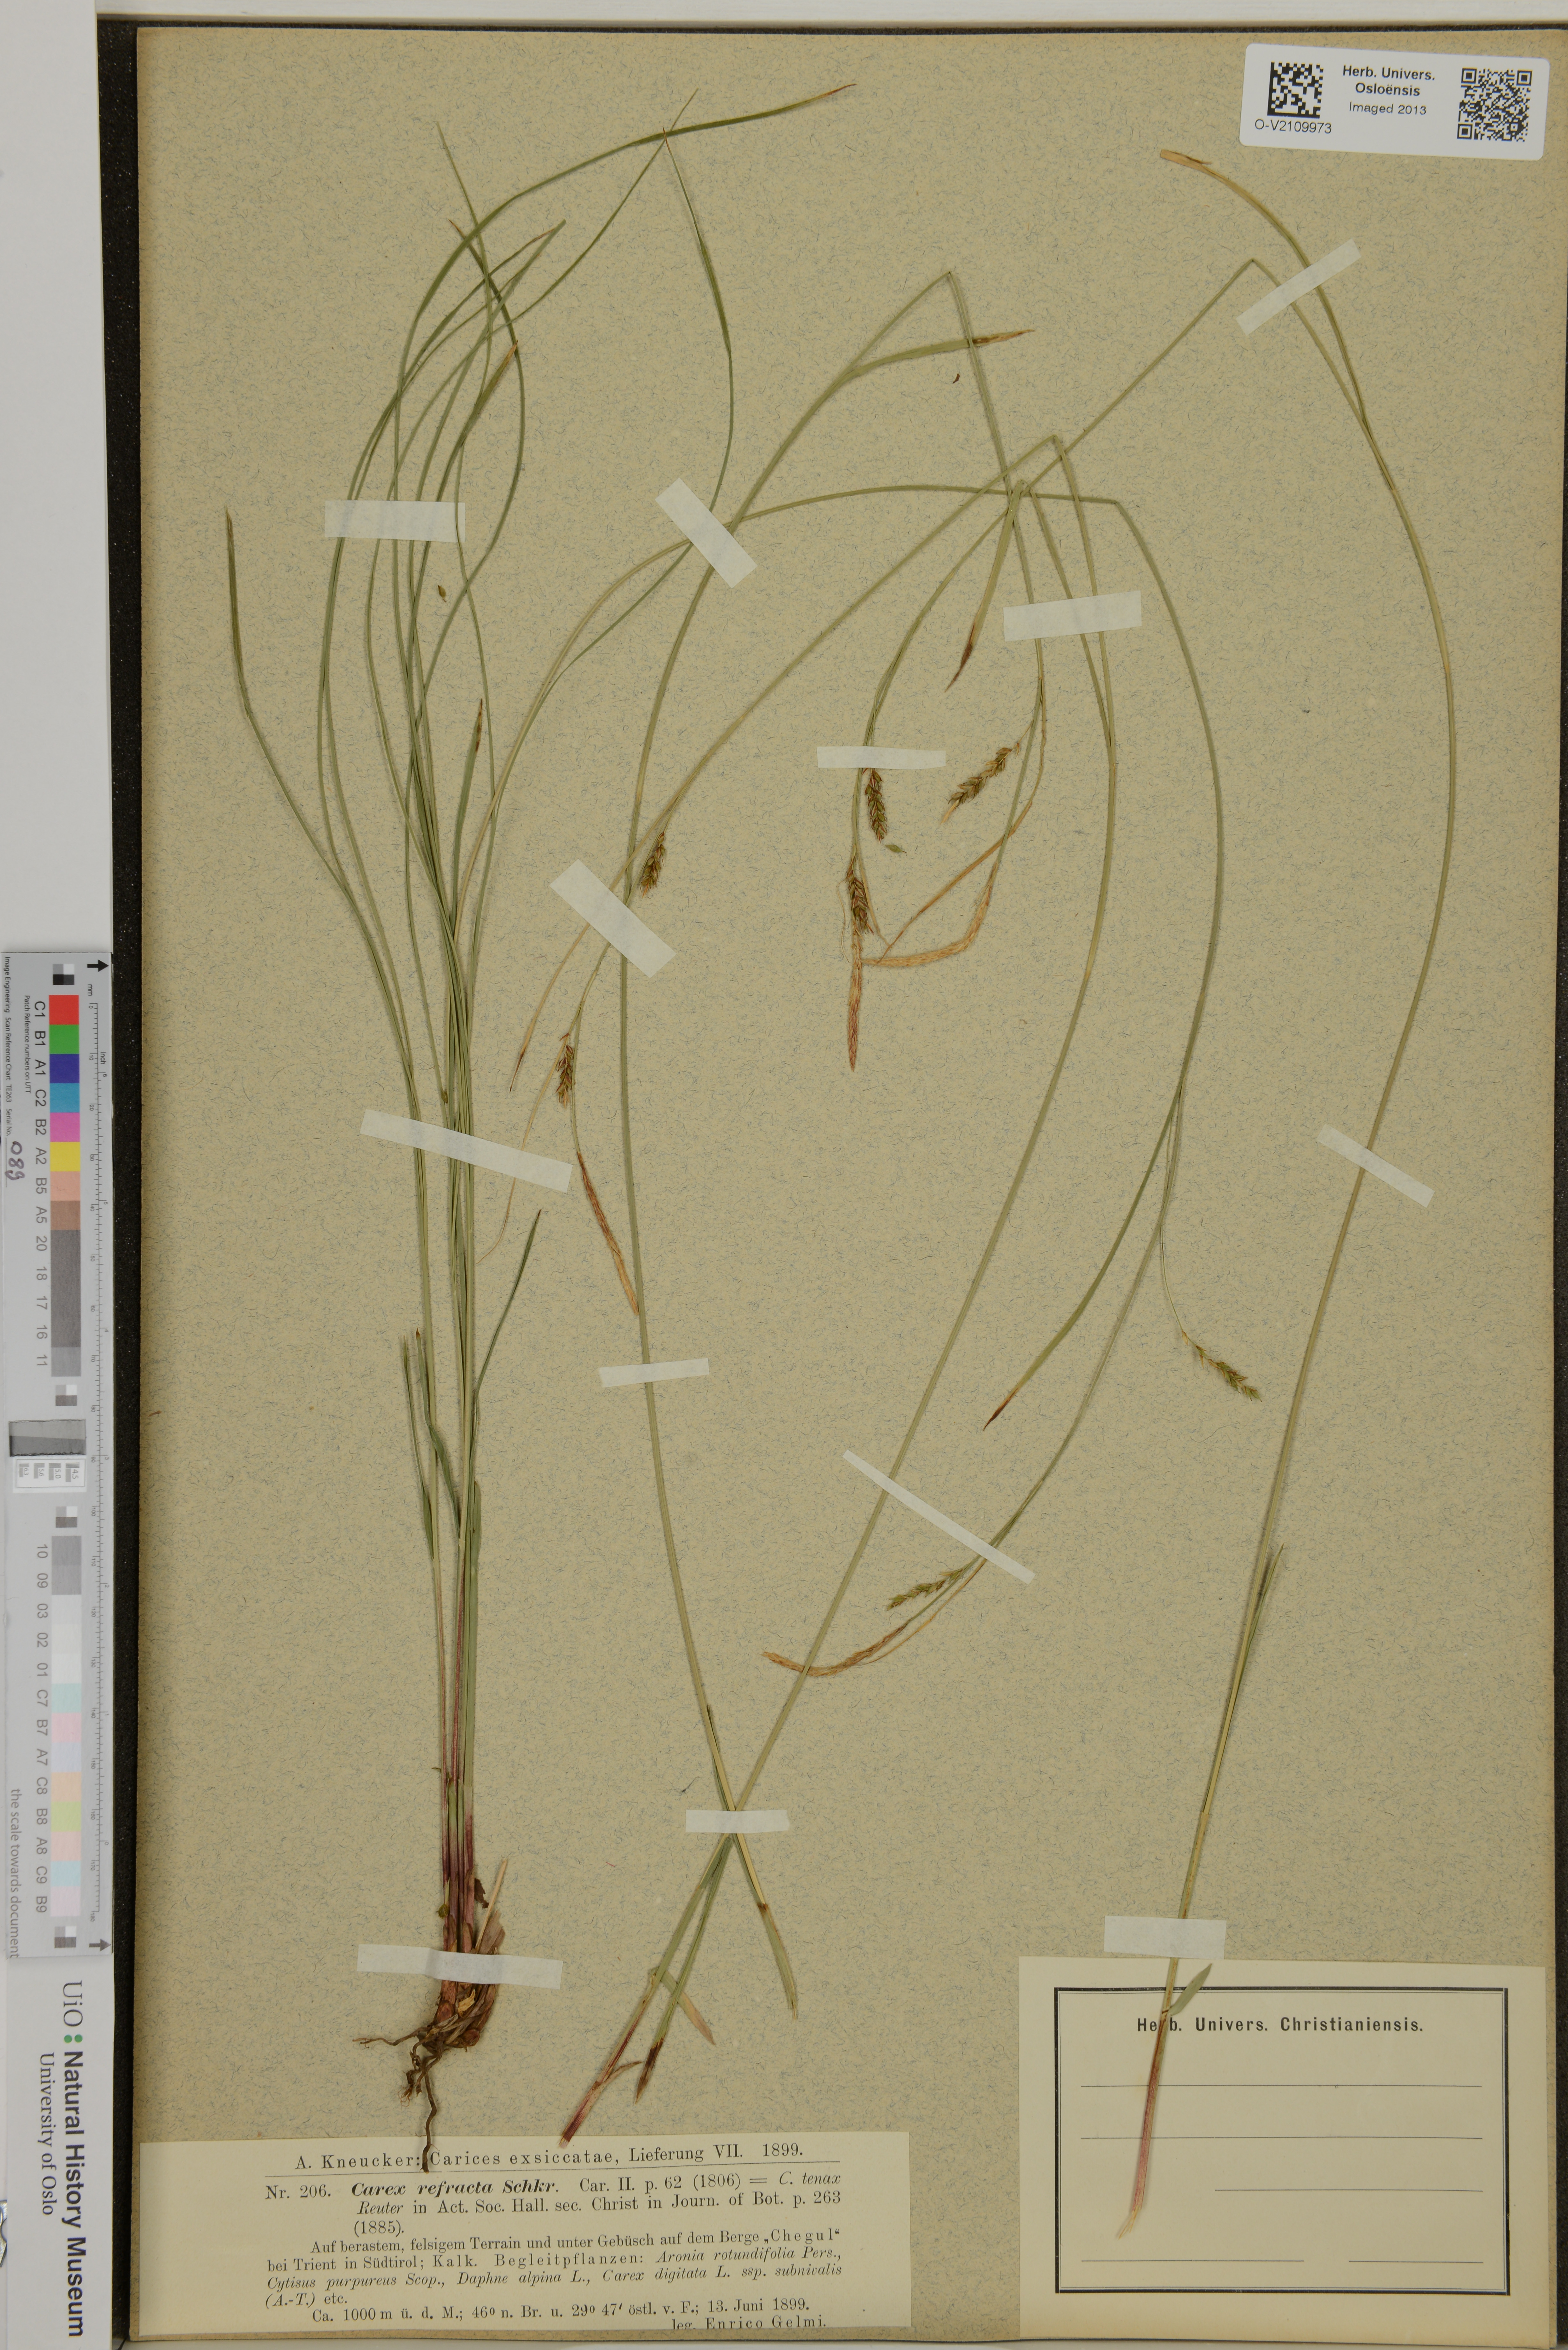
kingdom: Plantae
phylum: Tracheophyta
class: Liliopsida
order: Poales
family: Cyperaceae
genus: Carex
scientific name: Carex
